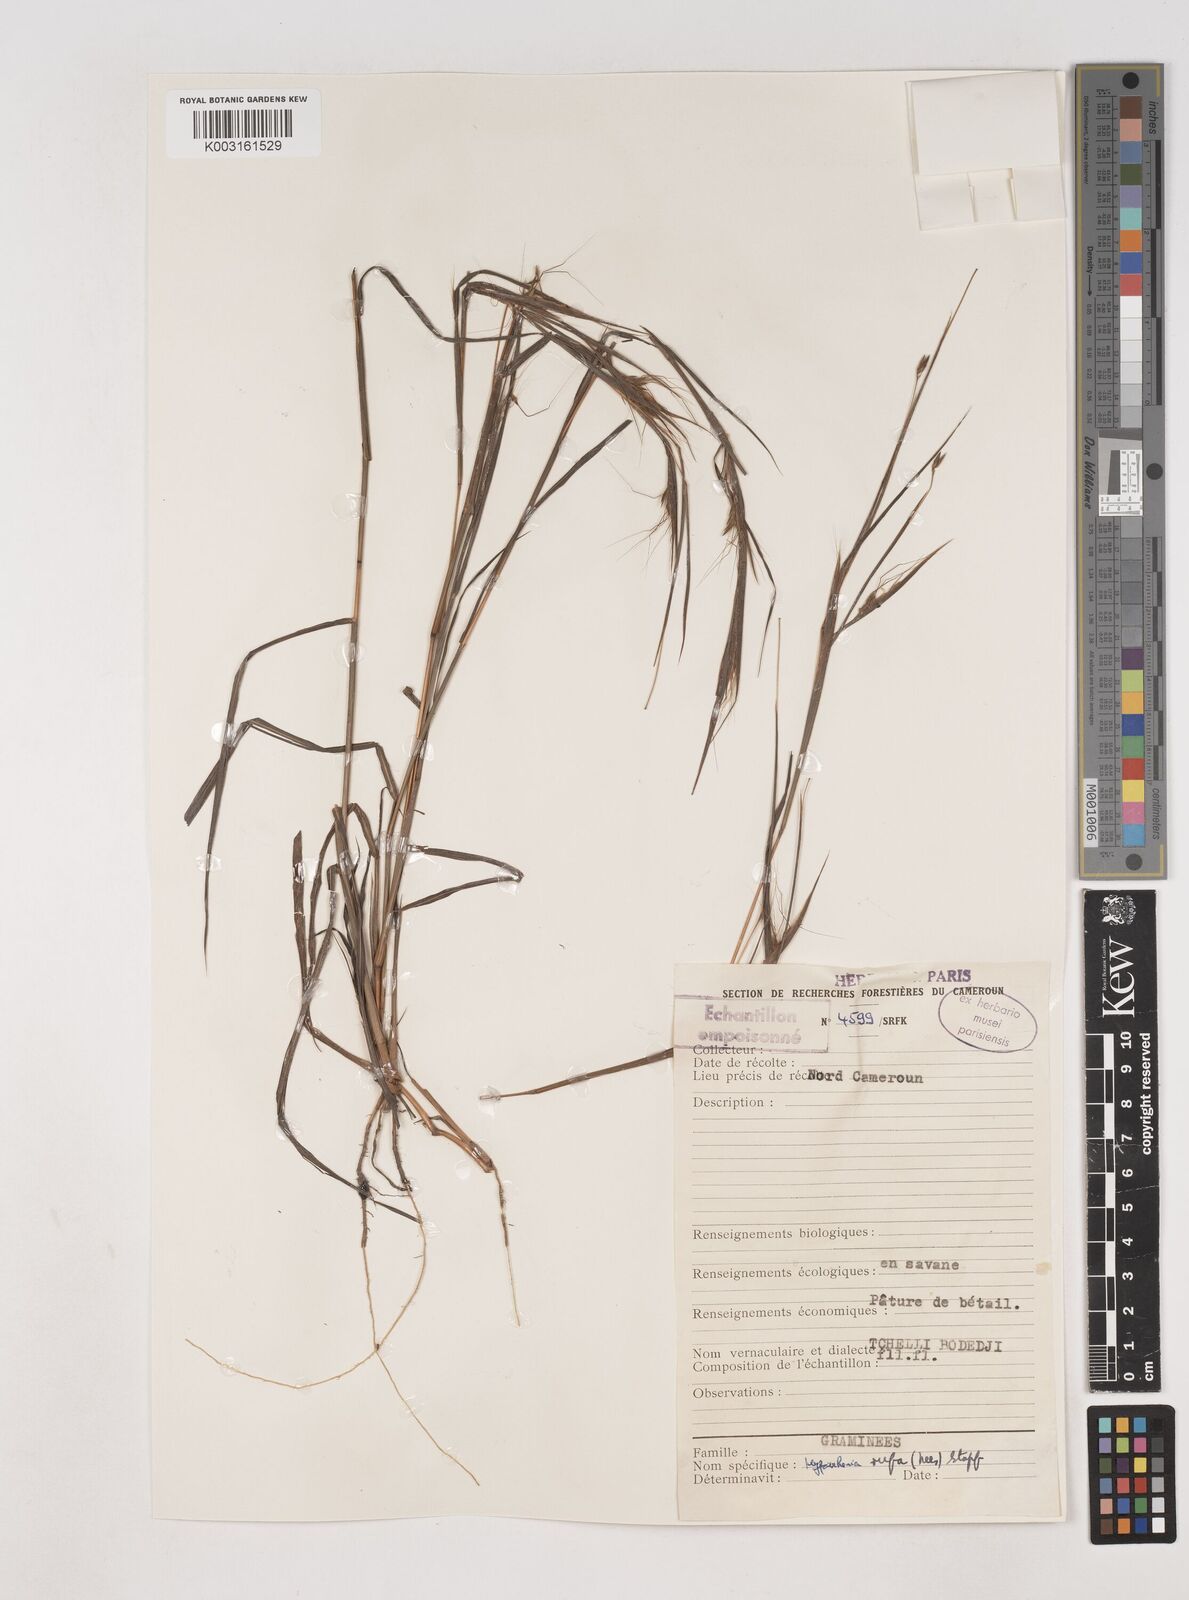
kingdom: Plantae
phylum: Tracheophyta
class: Liliopsida
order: Poales
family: Poaceae
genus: Hyparrhenia
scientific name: Hyparrhenia rufa
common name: Jaraguagrass
